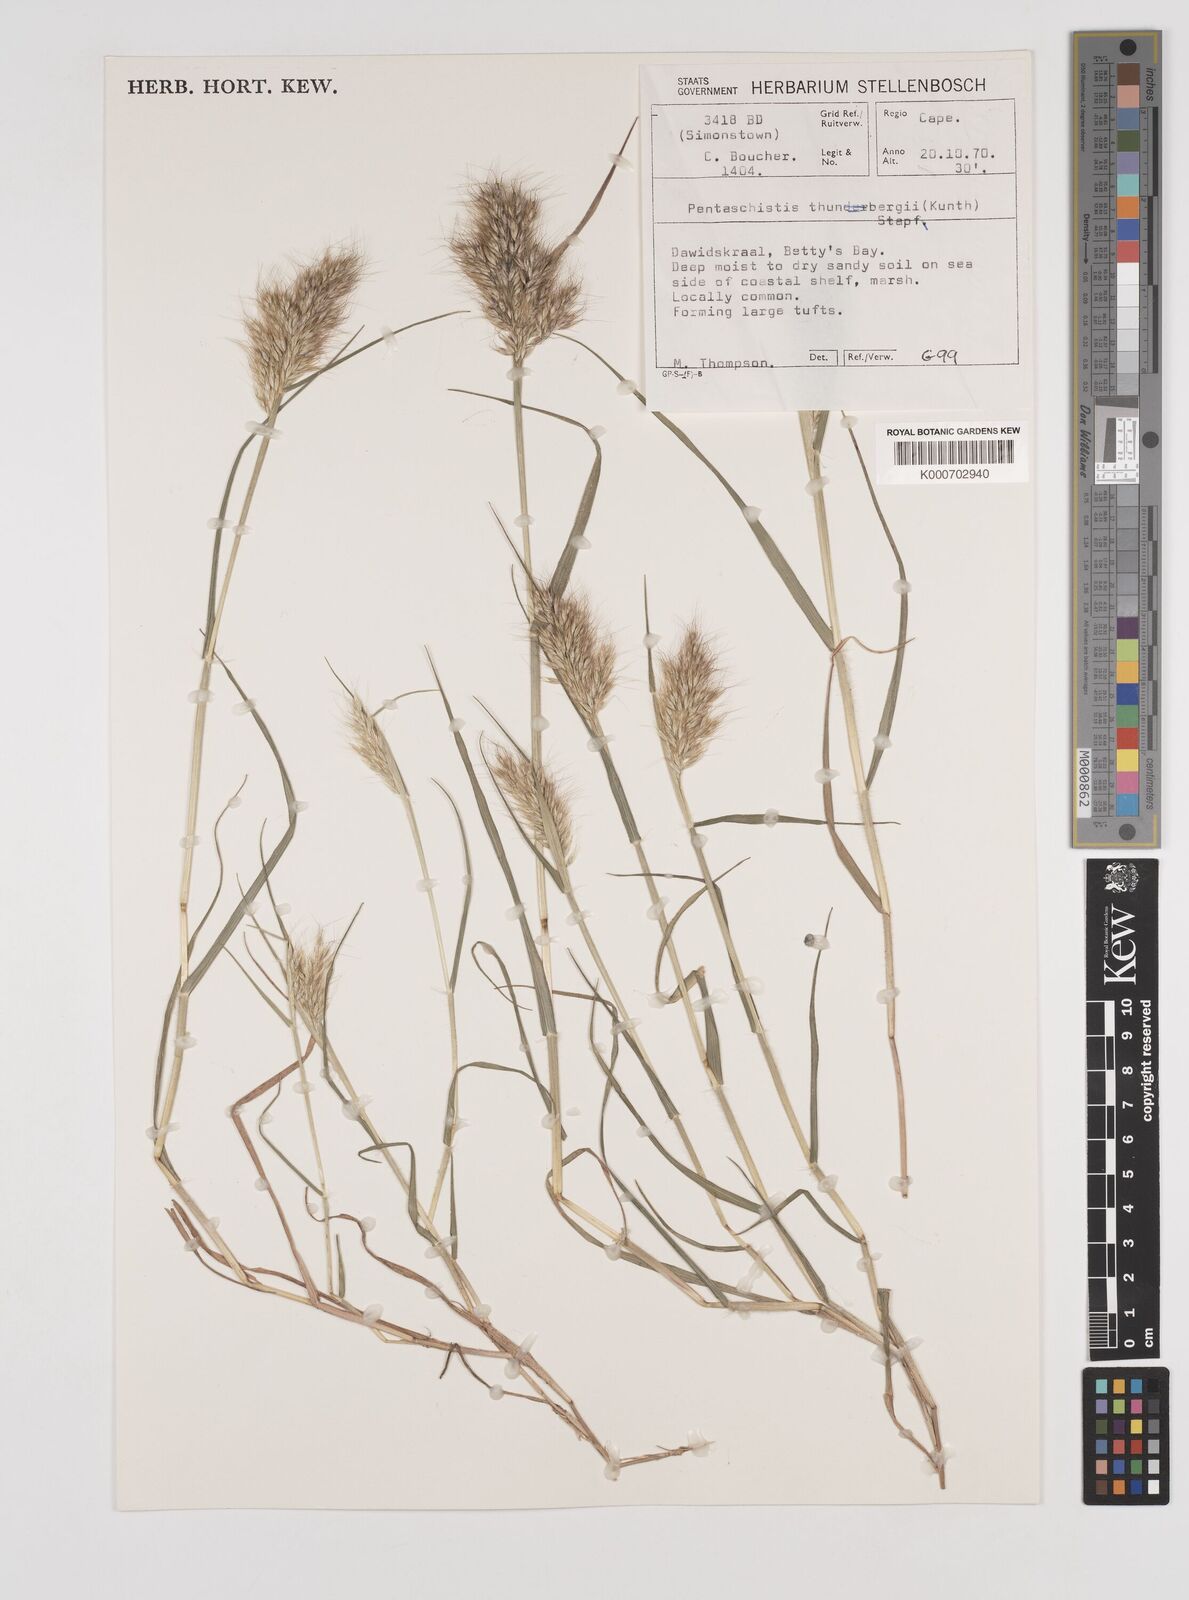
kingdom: Plantae
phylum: Tracheophyta
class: Liliopsida
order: Poales
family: Poaceae
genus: Pentameris
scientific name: Pentameris scabra
